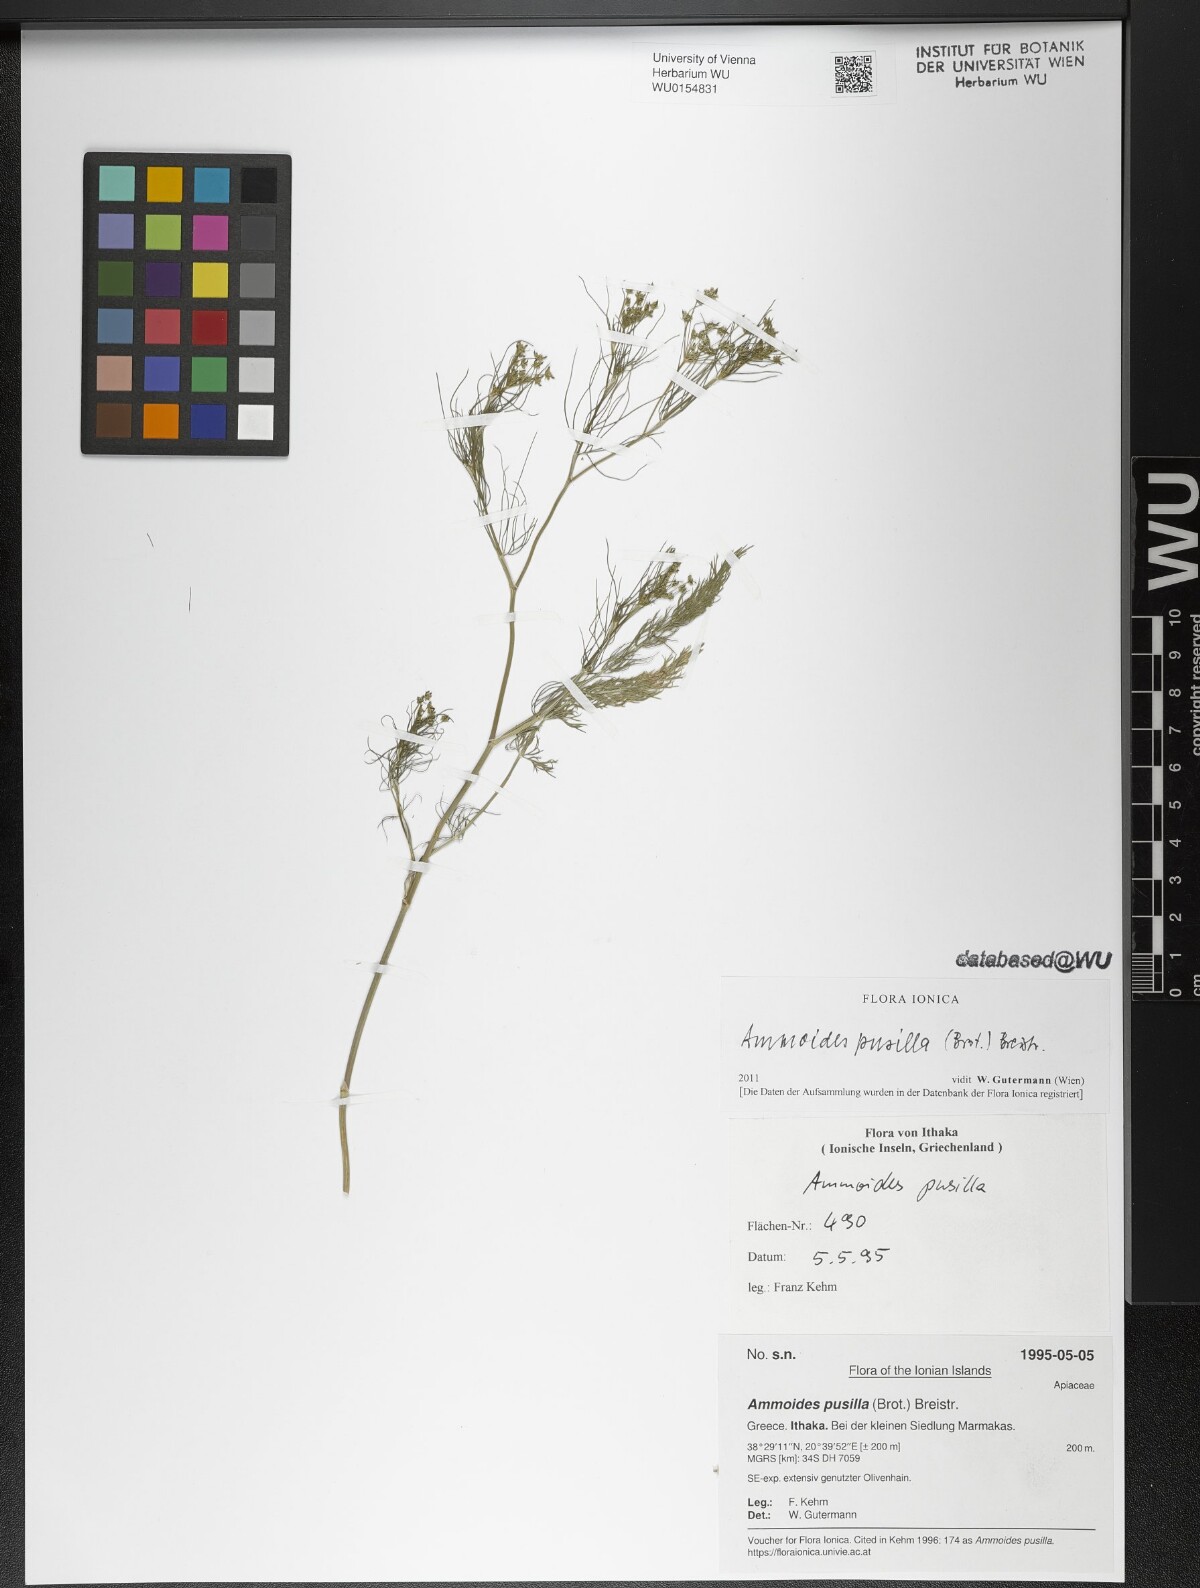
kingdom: Plantae
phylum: Tracheophyta
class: Magnoliopsida
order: Apiales
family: Apiaceae
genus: Ammoides
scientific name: Ammoides pusilla
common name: Cerfolium
